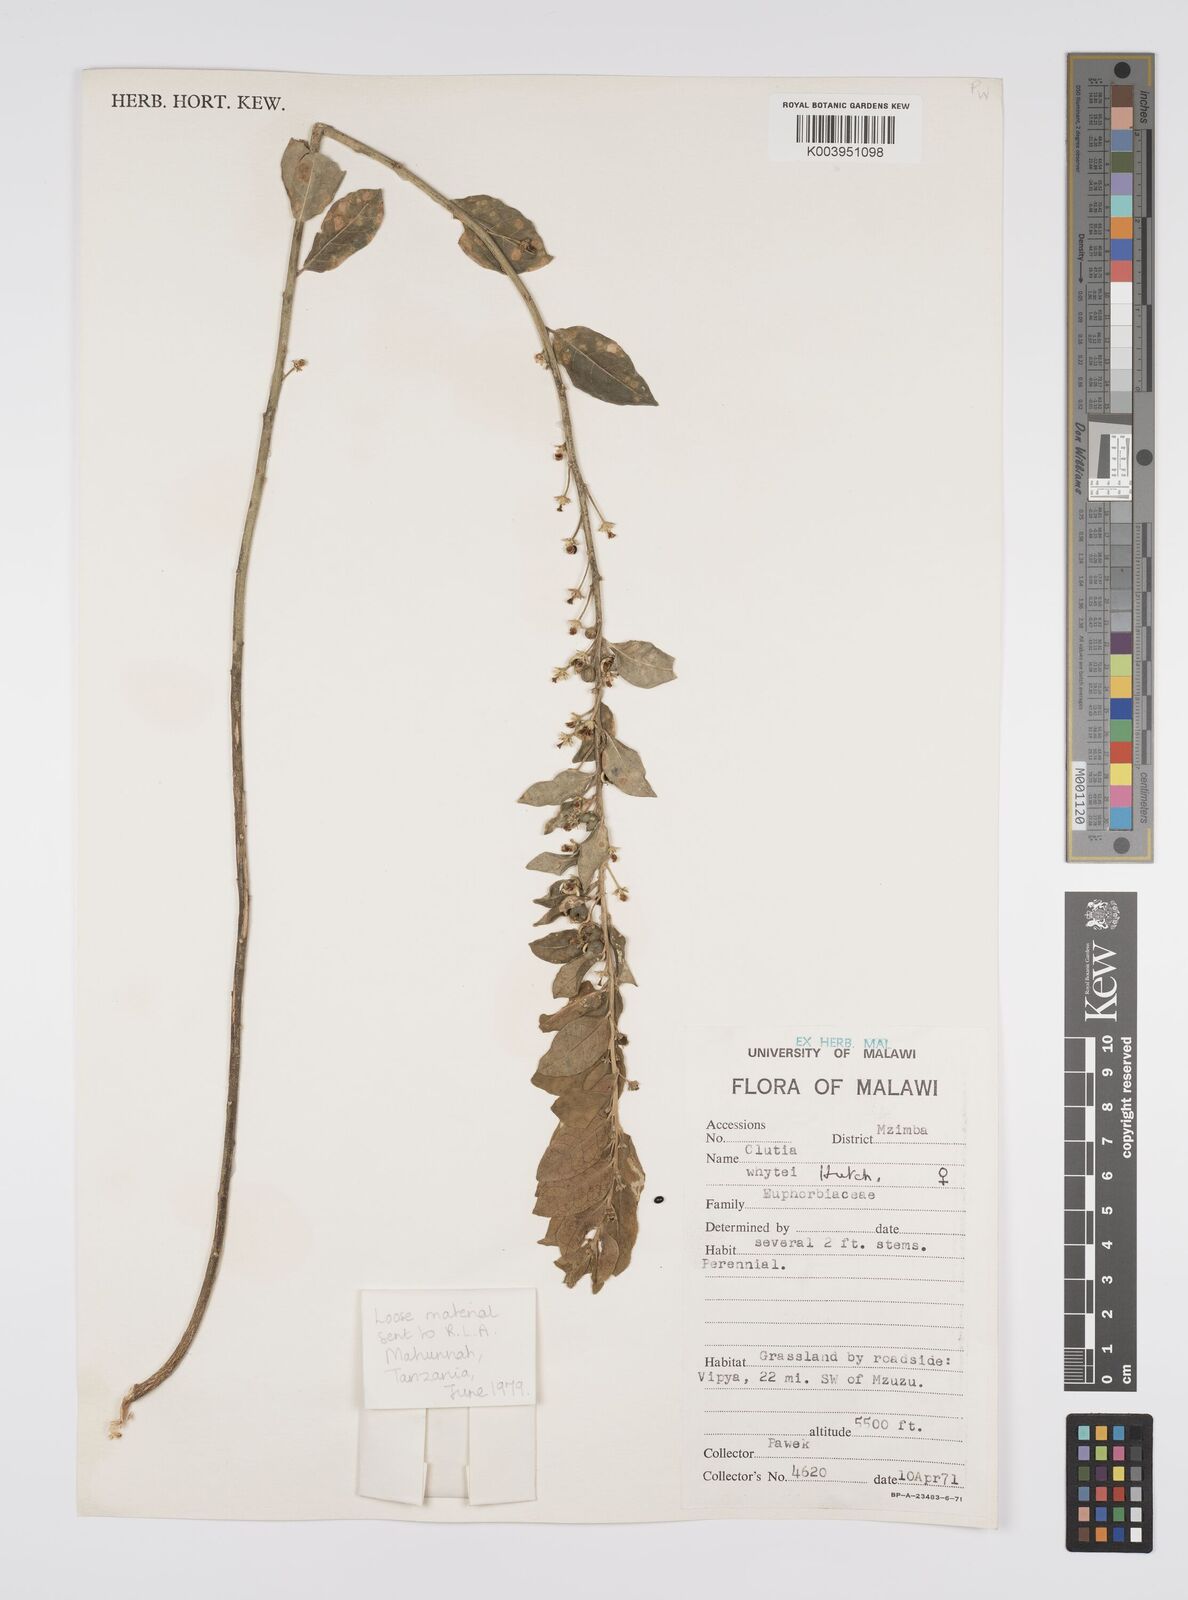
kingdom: Plantae
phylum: Tracheophyta
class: Magnoliopsida
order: Malpighiales
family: Peraceae
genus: Clutia
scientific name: Clutia whytei
